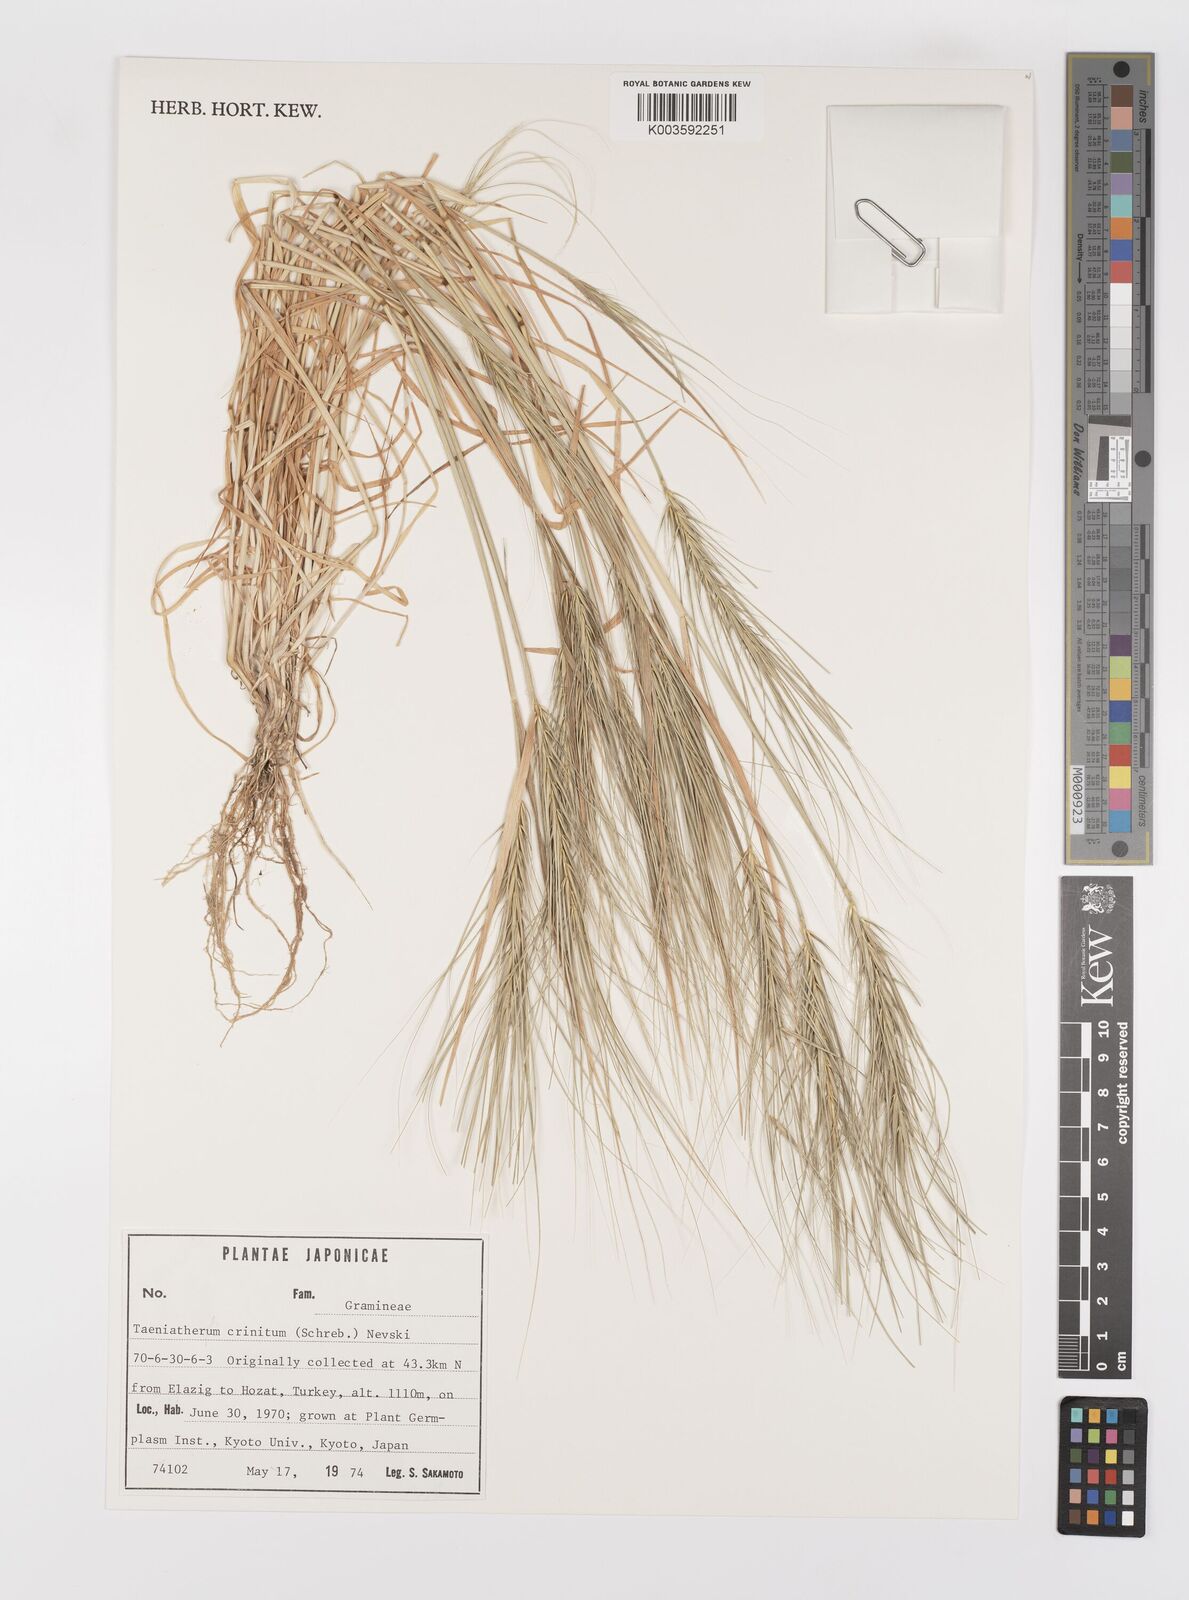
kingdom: Plantae
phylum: Tracheophyta
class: Liliopsida
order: Poales
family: Poaceae
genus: Taeniatherum
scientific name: Taeniatherum caput-medusae
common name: Medusahead
